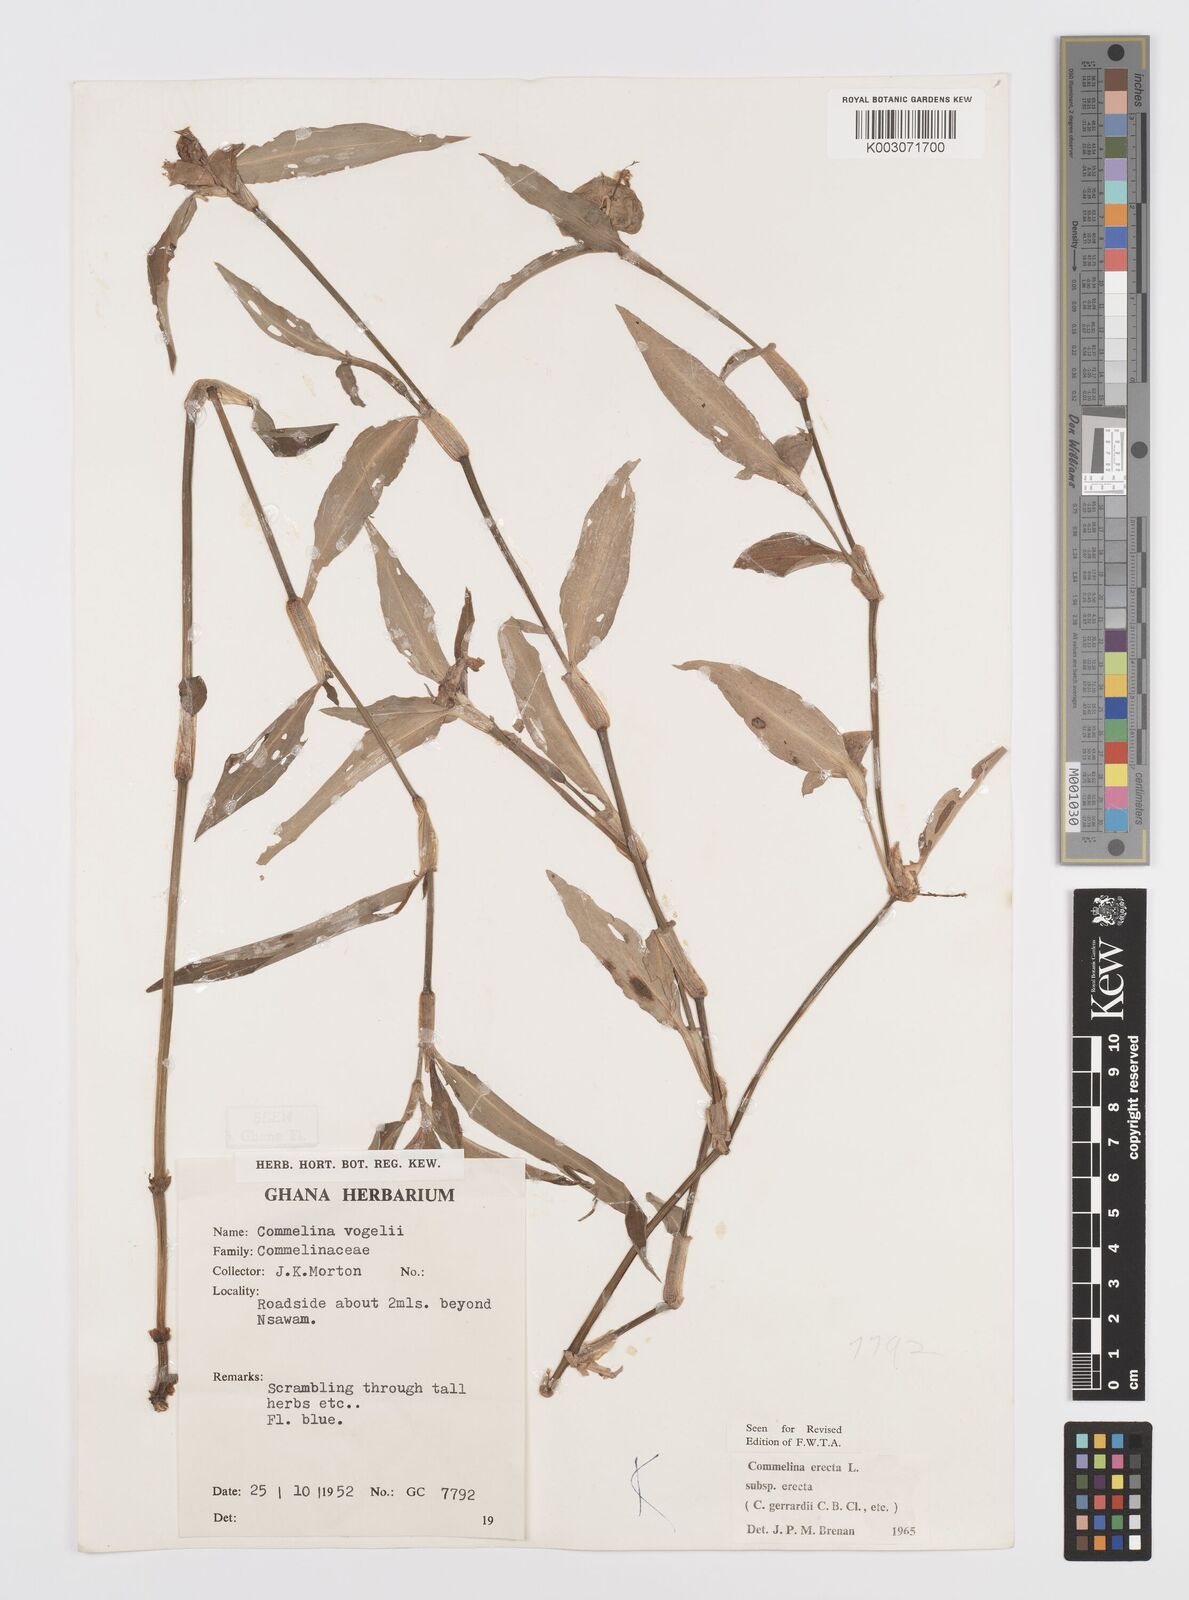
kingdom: Plantae
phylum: Tracheophyta
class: Liliopsida
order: Commelinales
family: Commelinaceae
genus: Commelina
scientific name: Commelina erecta
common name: Blousel blommetjie
